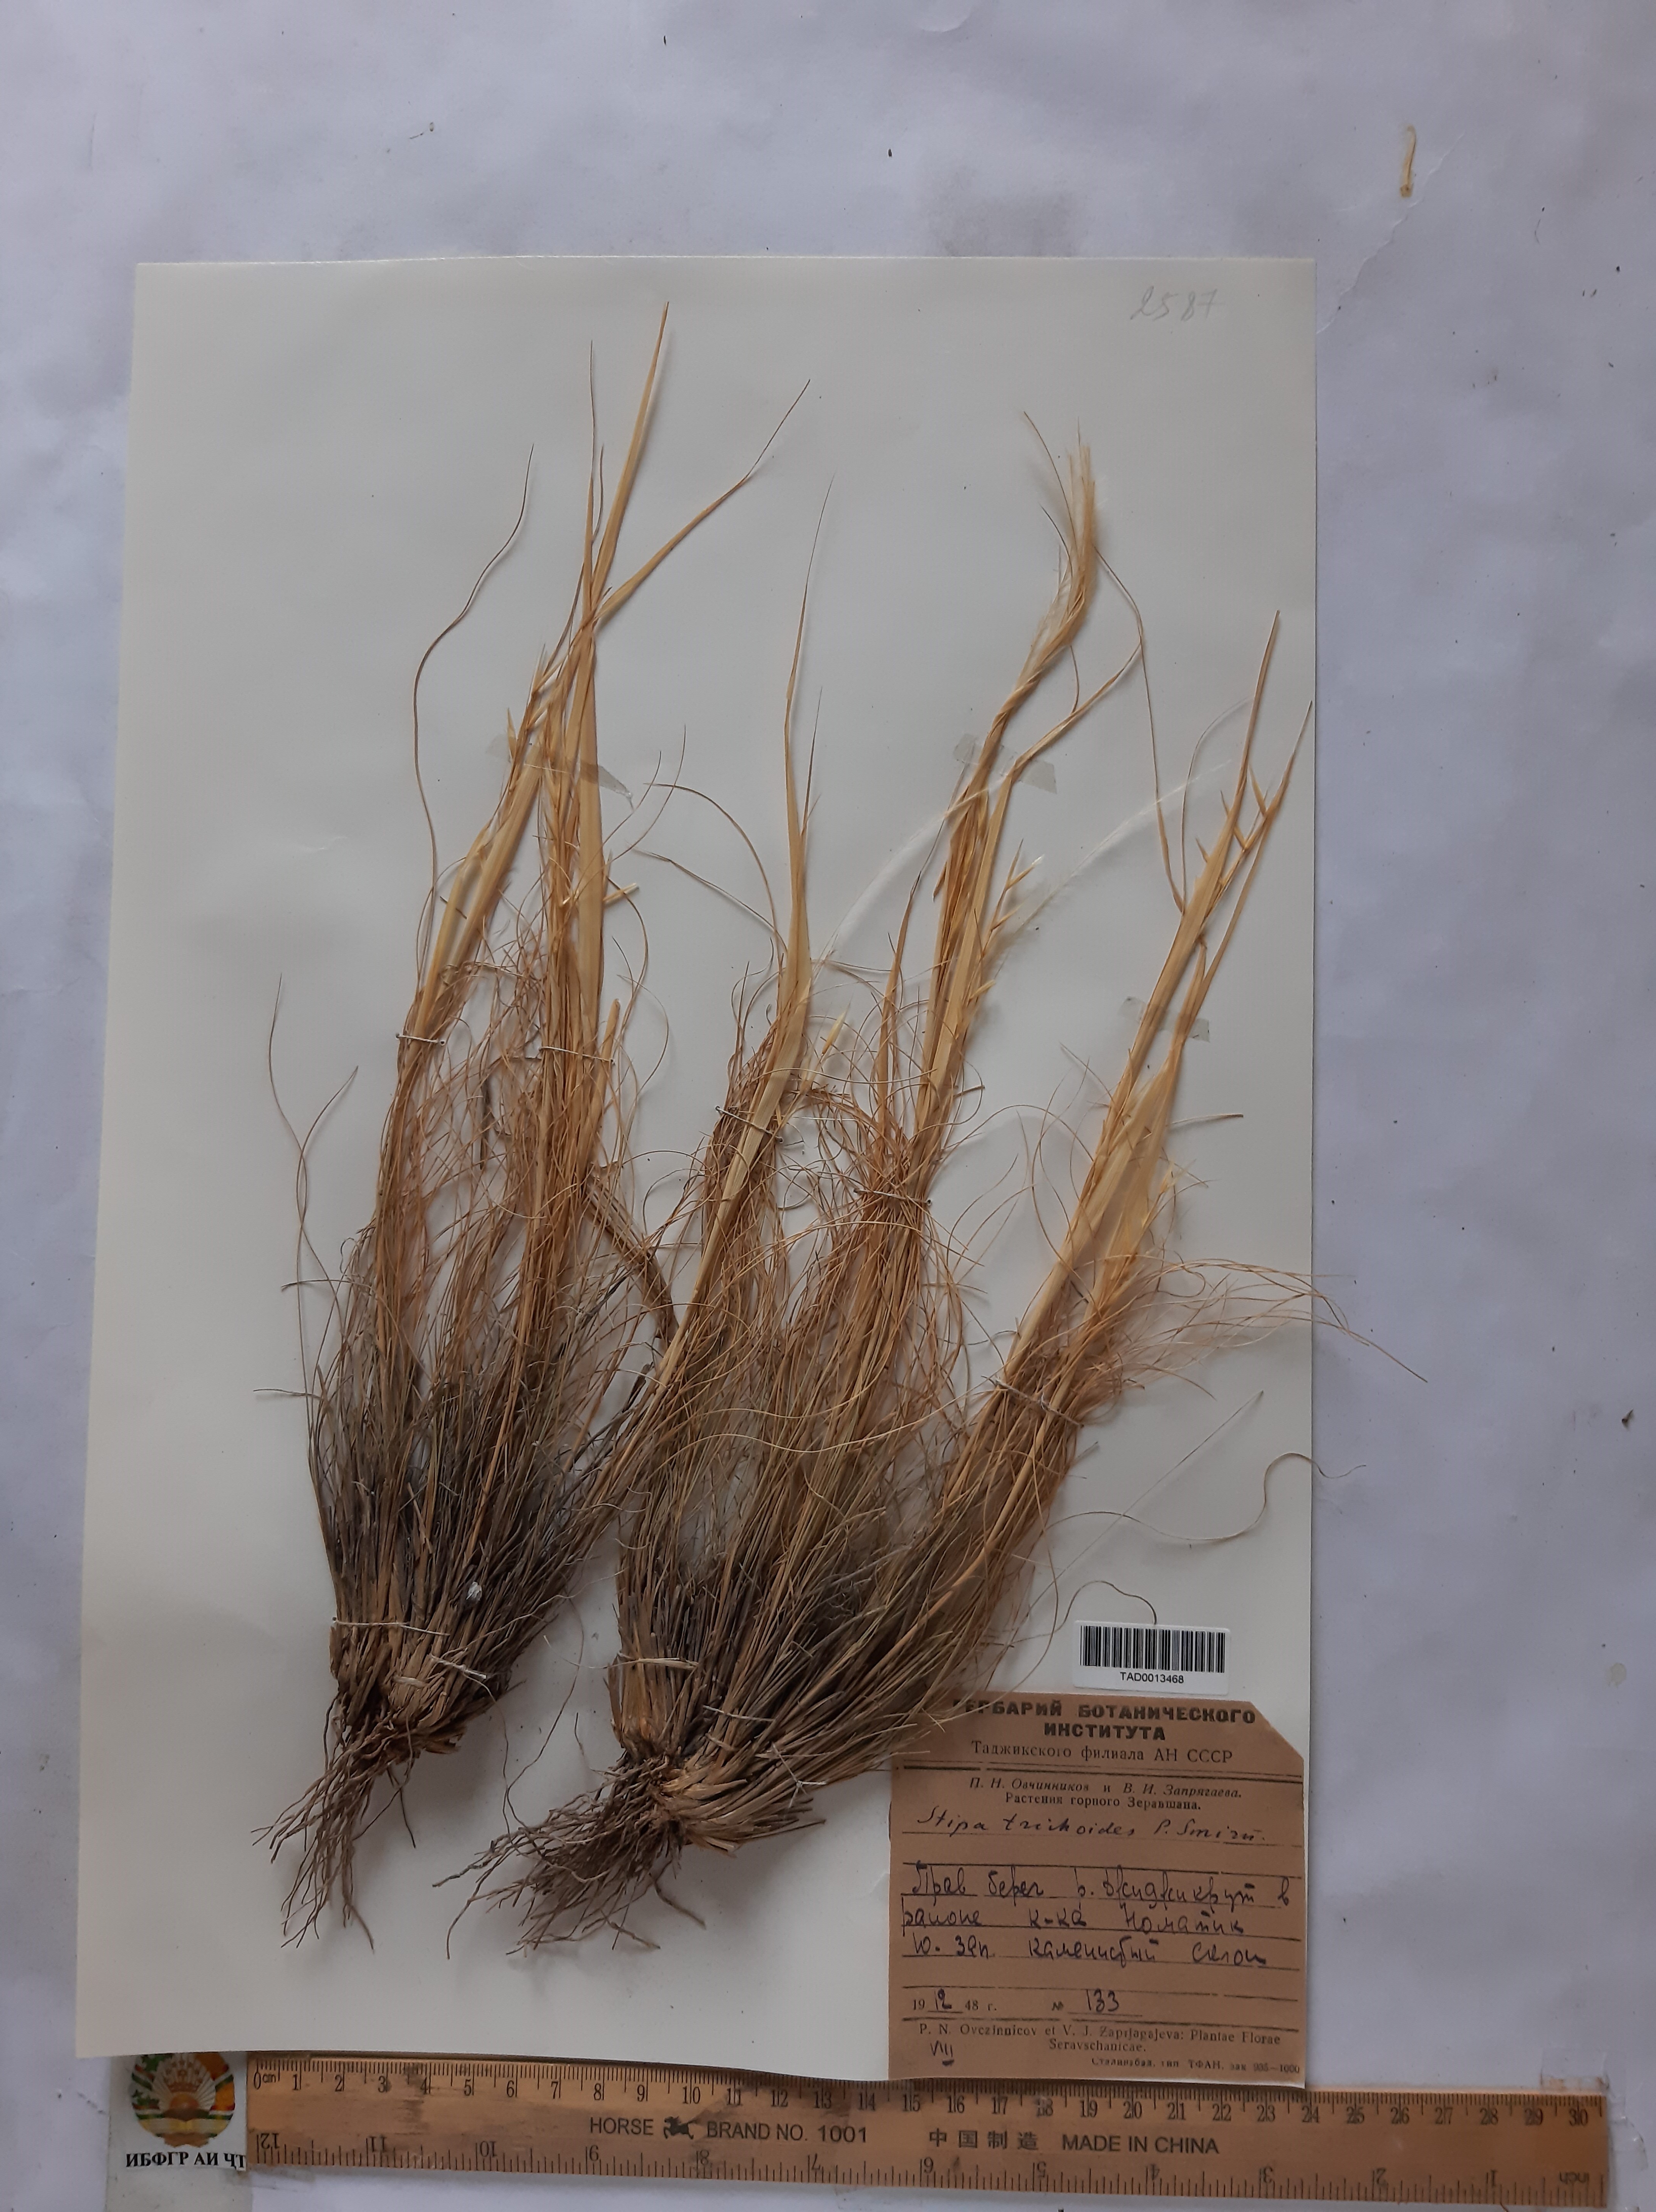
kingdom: Plantae
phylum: Tracheophyta
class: Liliopsida
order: Poales
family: Poaceae
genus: Stipa
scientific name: Stipa trichoides
